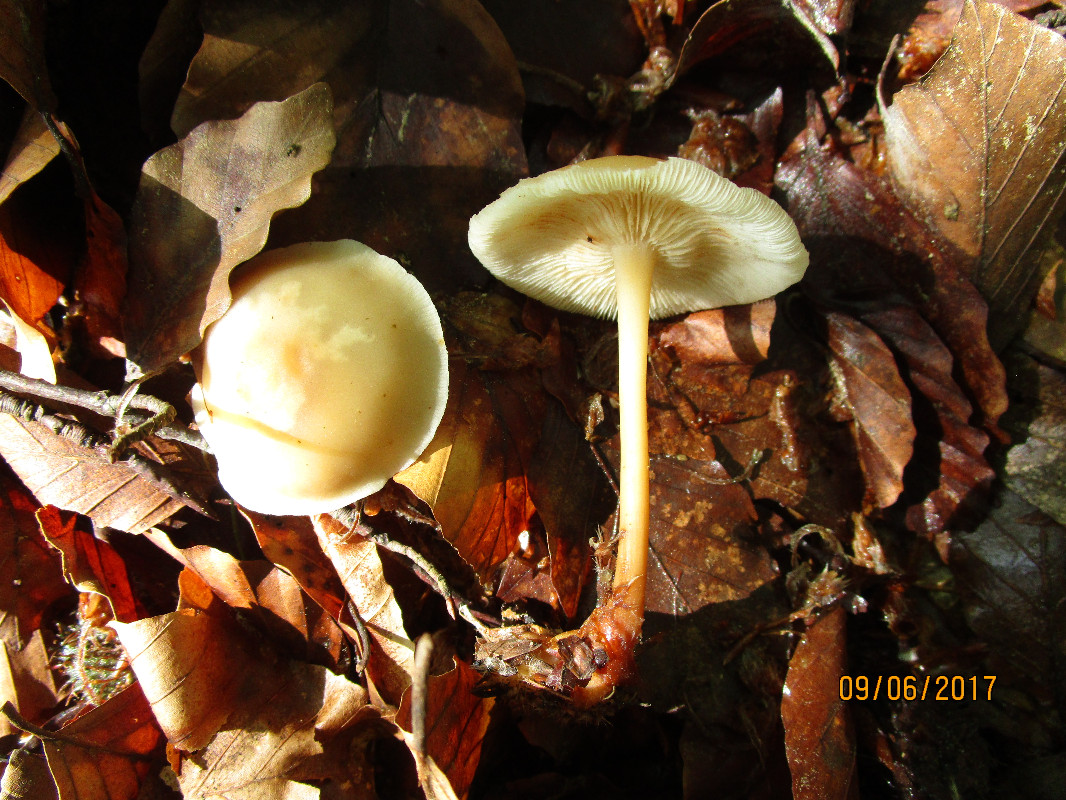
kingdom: Fungi
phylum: Basidiomycota
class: Agaricomycetes
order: Agaricales
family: Omphalotaceae
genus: Gymnopus
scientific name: Gymnopus
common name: fladhat
